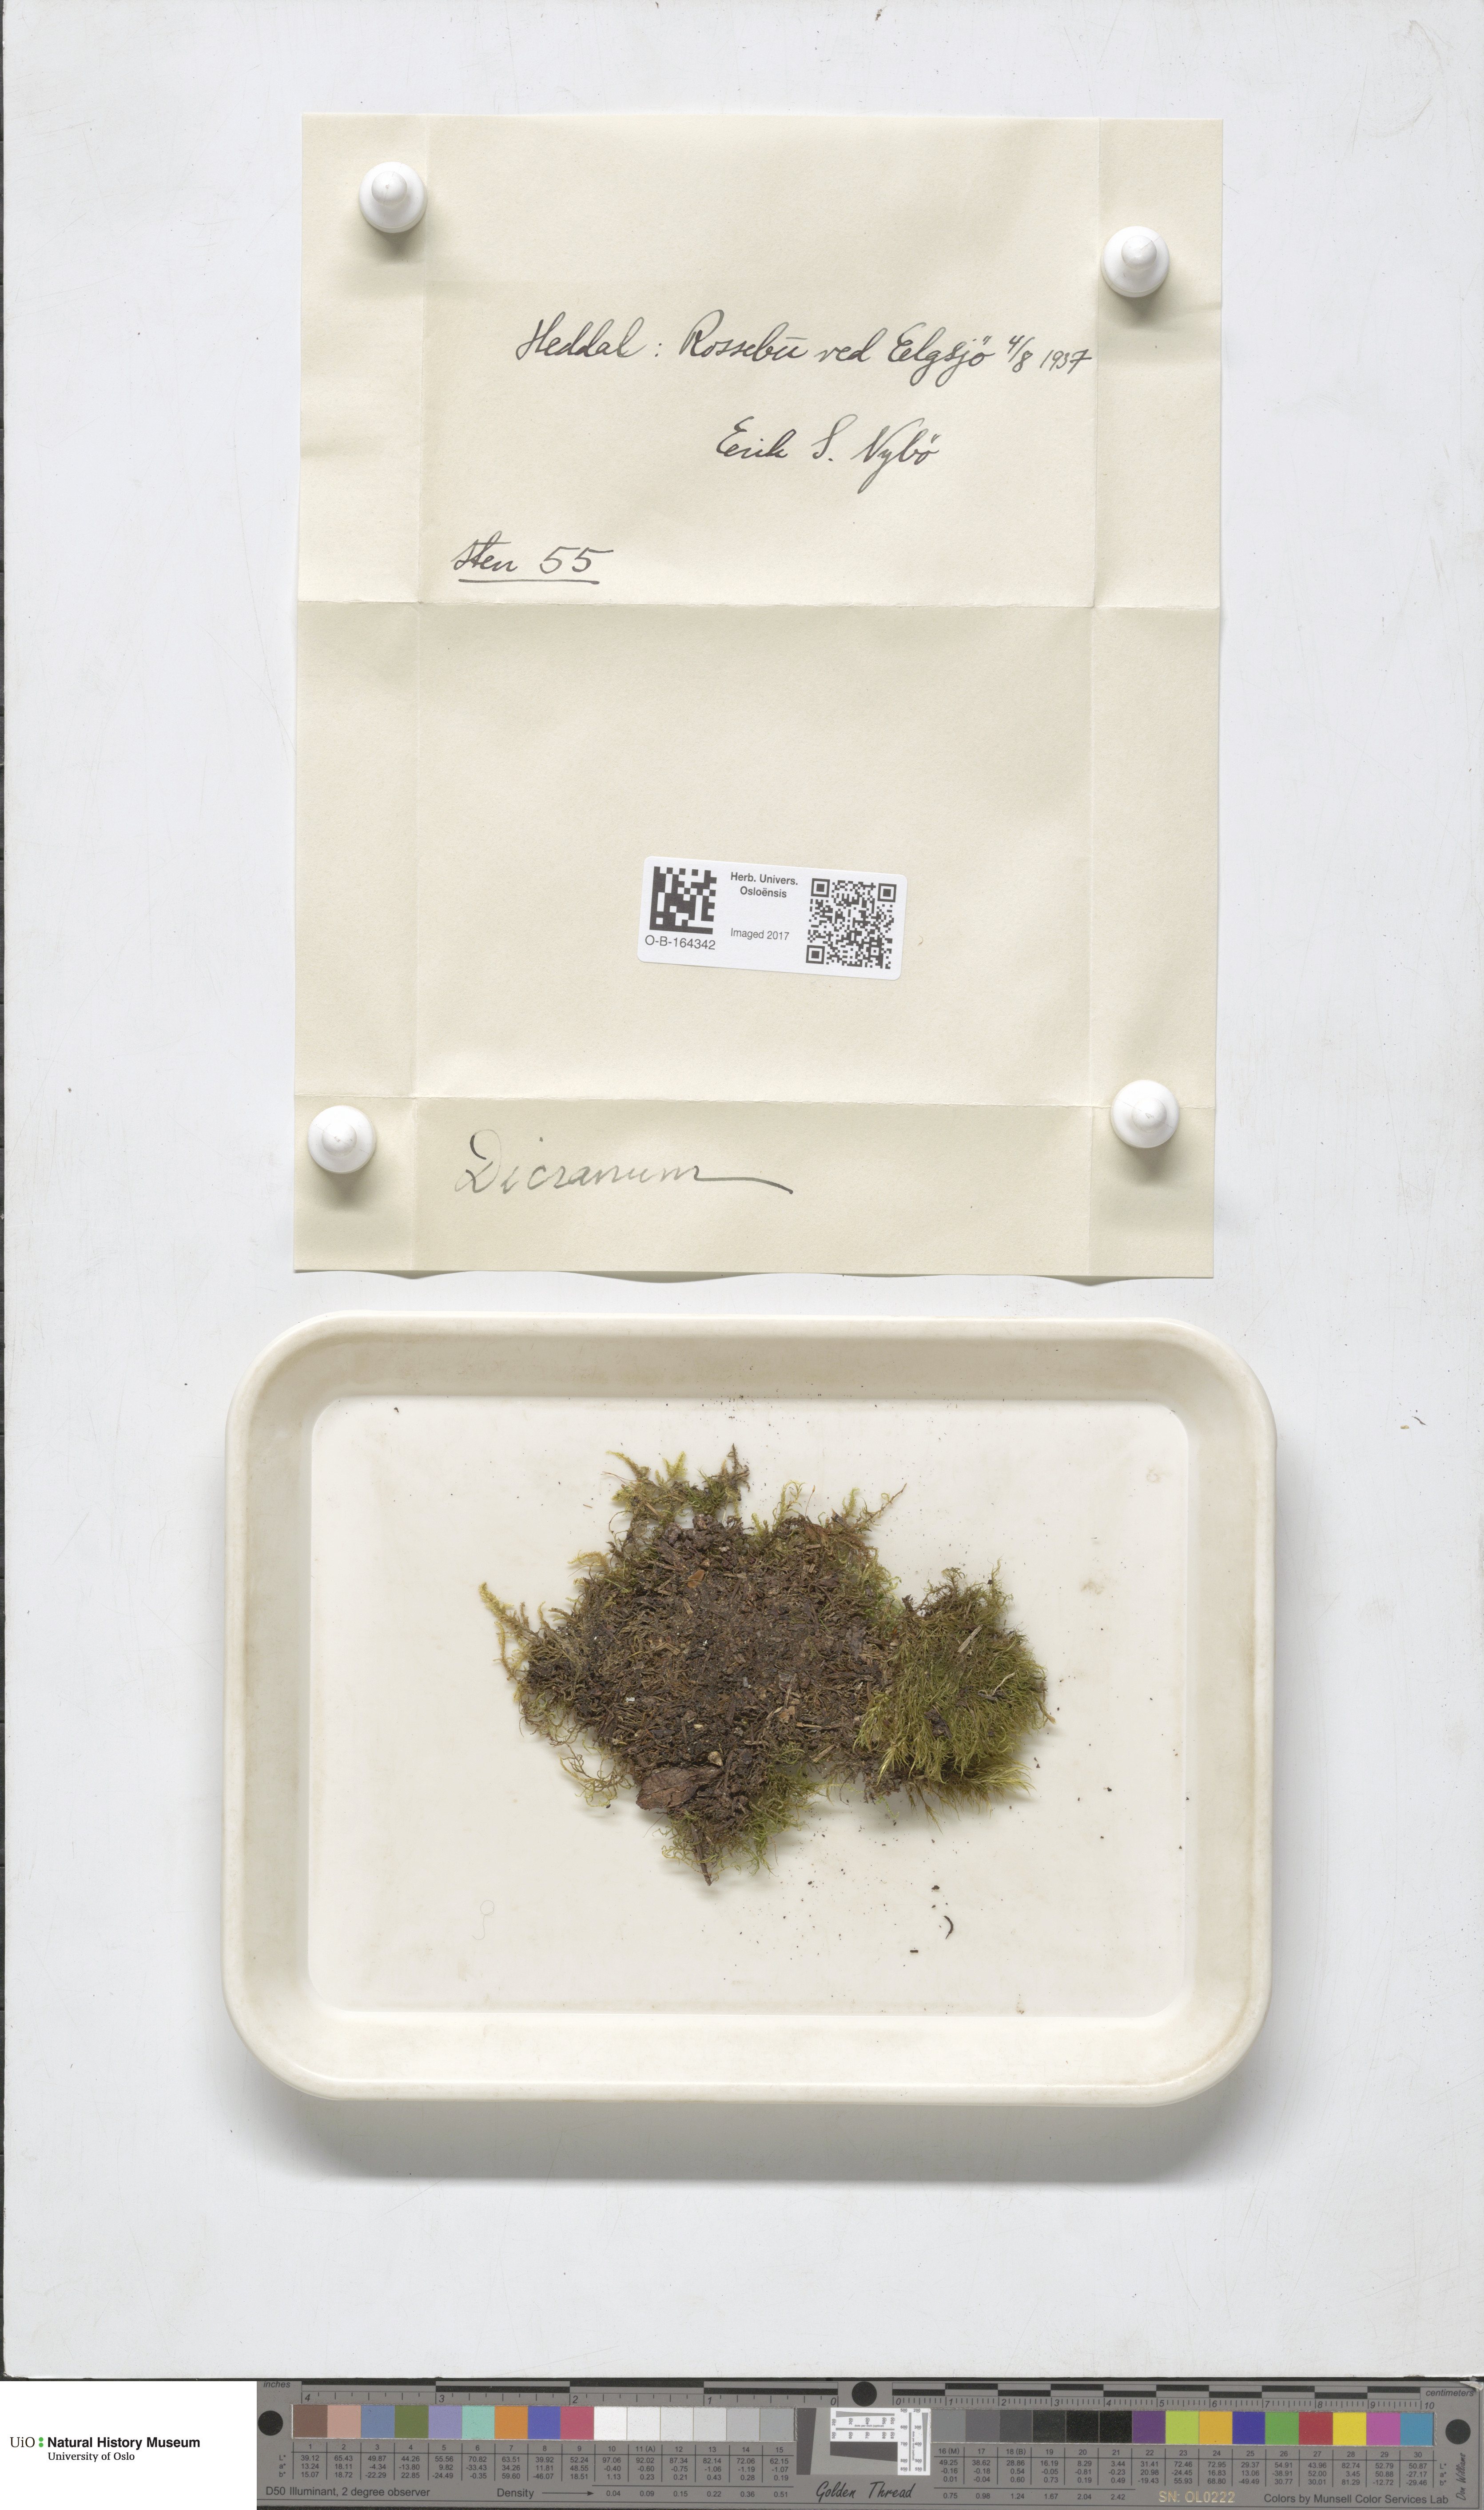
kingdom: Plantae
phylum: Bryophyta
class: Bryopsida
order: Dicranales
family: Dicranaceae
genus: Dicranum
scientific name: Dicranum
